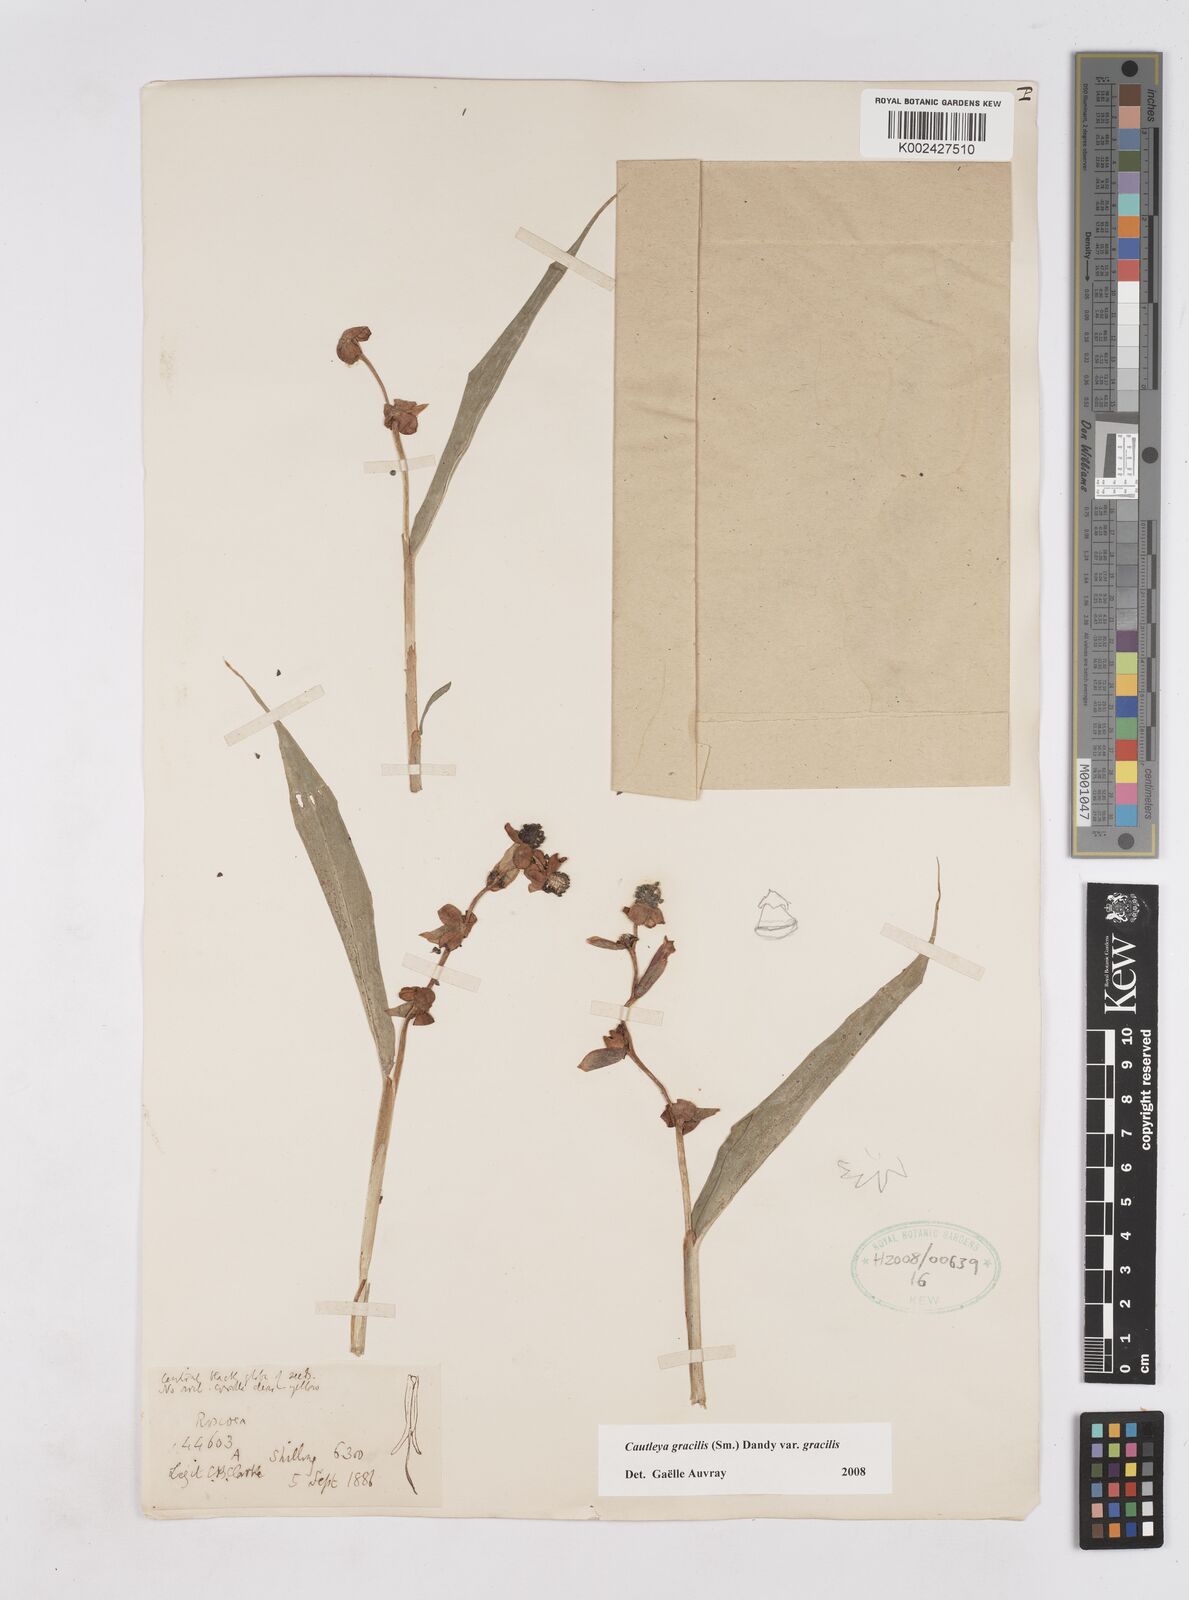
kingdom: Plantae
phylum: Tracheophyta
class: Liliopsida
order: Zingiberales
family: Zingiberaceae
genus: Cautleya
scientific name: Cautleya gracilis
